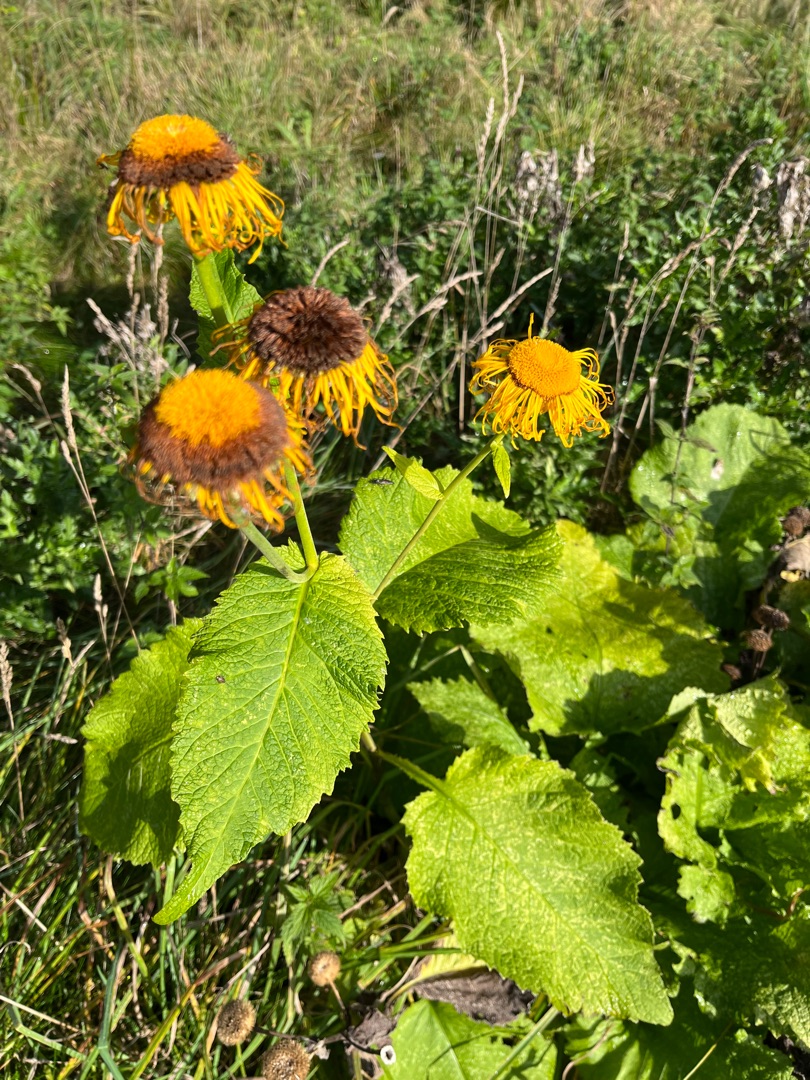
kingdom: Plantae
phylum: Tracheophyta
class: Magnoliopsida
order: Asterales
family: Asteraceae
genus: Telekia
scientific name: Telekia speciosa
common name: Tusindstråle
